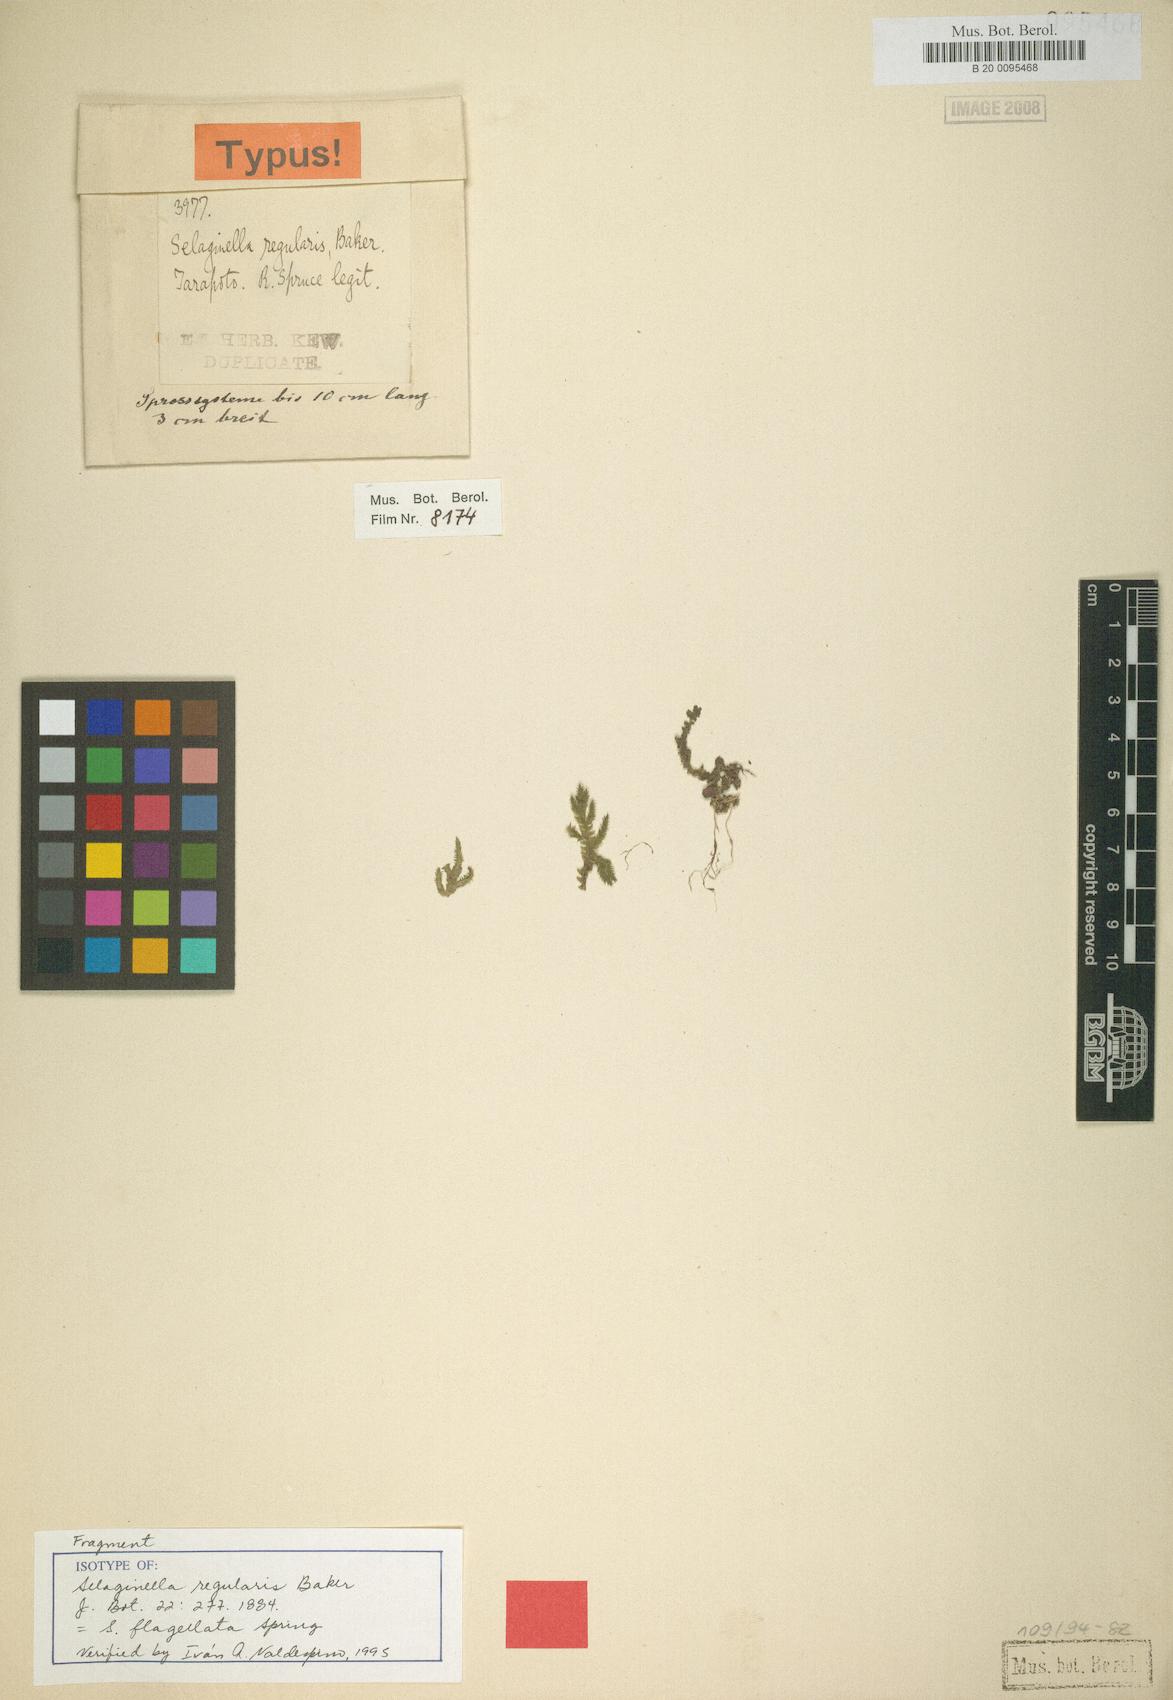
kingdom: Plantae
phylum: Tracheophyta
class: Lycopodiopsida
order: Selaginellales
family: Selaginellaceae
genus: Selaginella
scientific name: Selaginella flagellata
